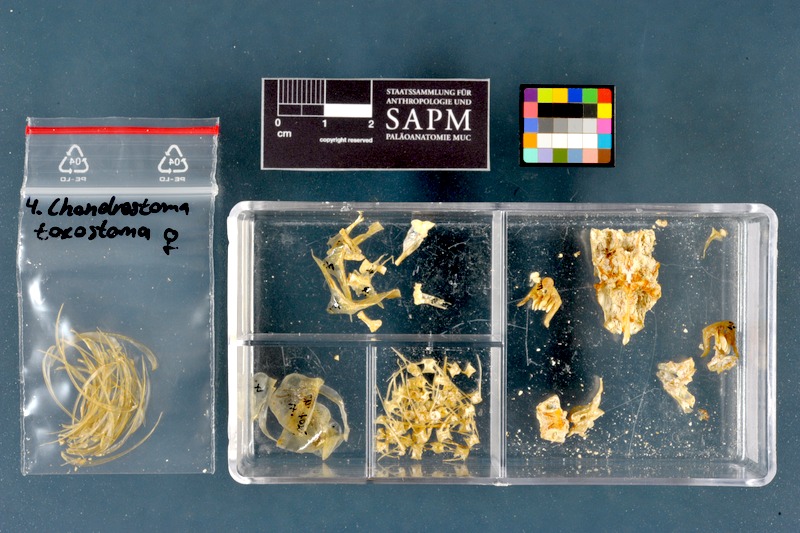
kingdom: Animalia
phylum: Chordata
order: Cypriniformes
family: Cyprinidae
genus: Parachondrostoma
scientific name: Parachondrostoma toxostoma
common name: Toxostome
